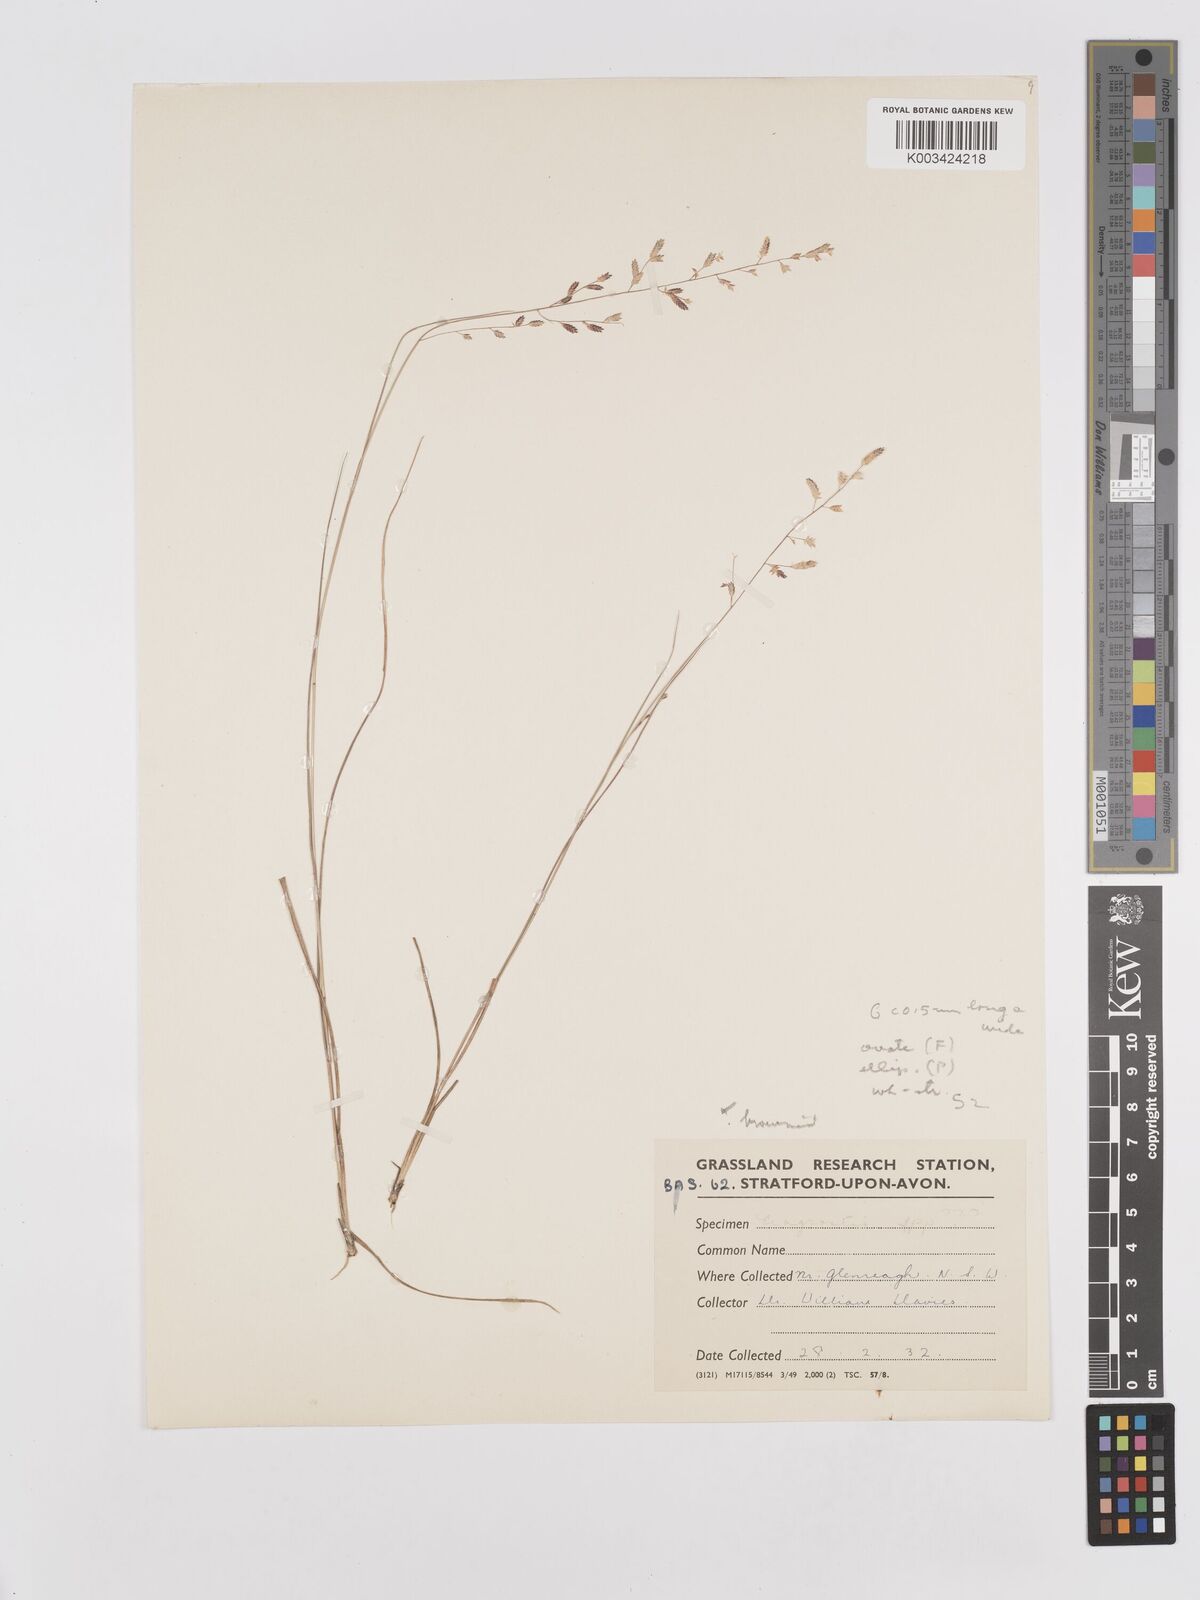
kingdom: Plantae
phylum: Tracheophyta
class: Liliopsida
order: Poales
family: Poaceae
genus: Eragrostis
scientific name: Eragrostis brownii
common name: Lovegrass
